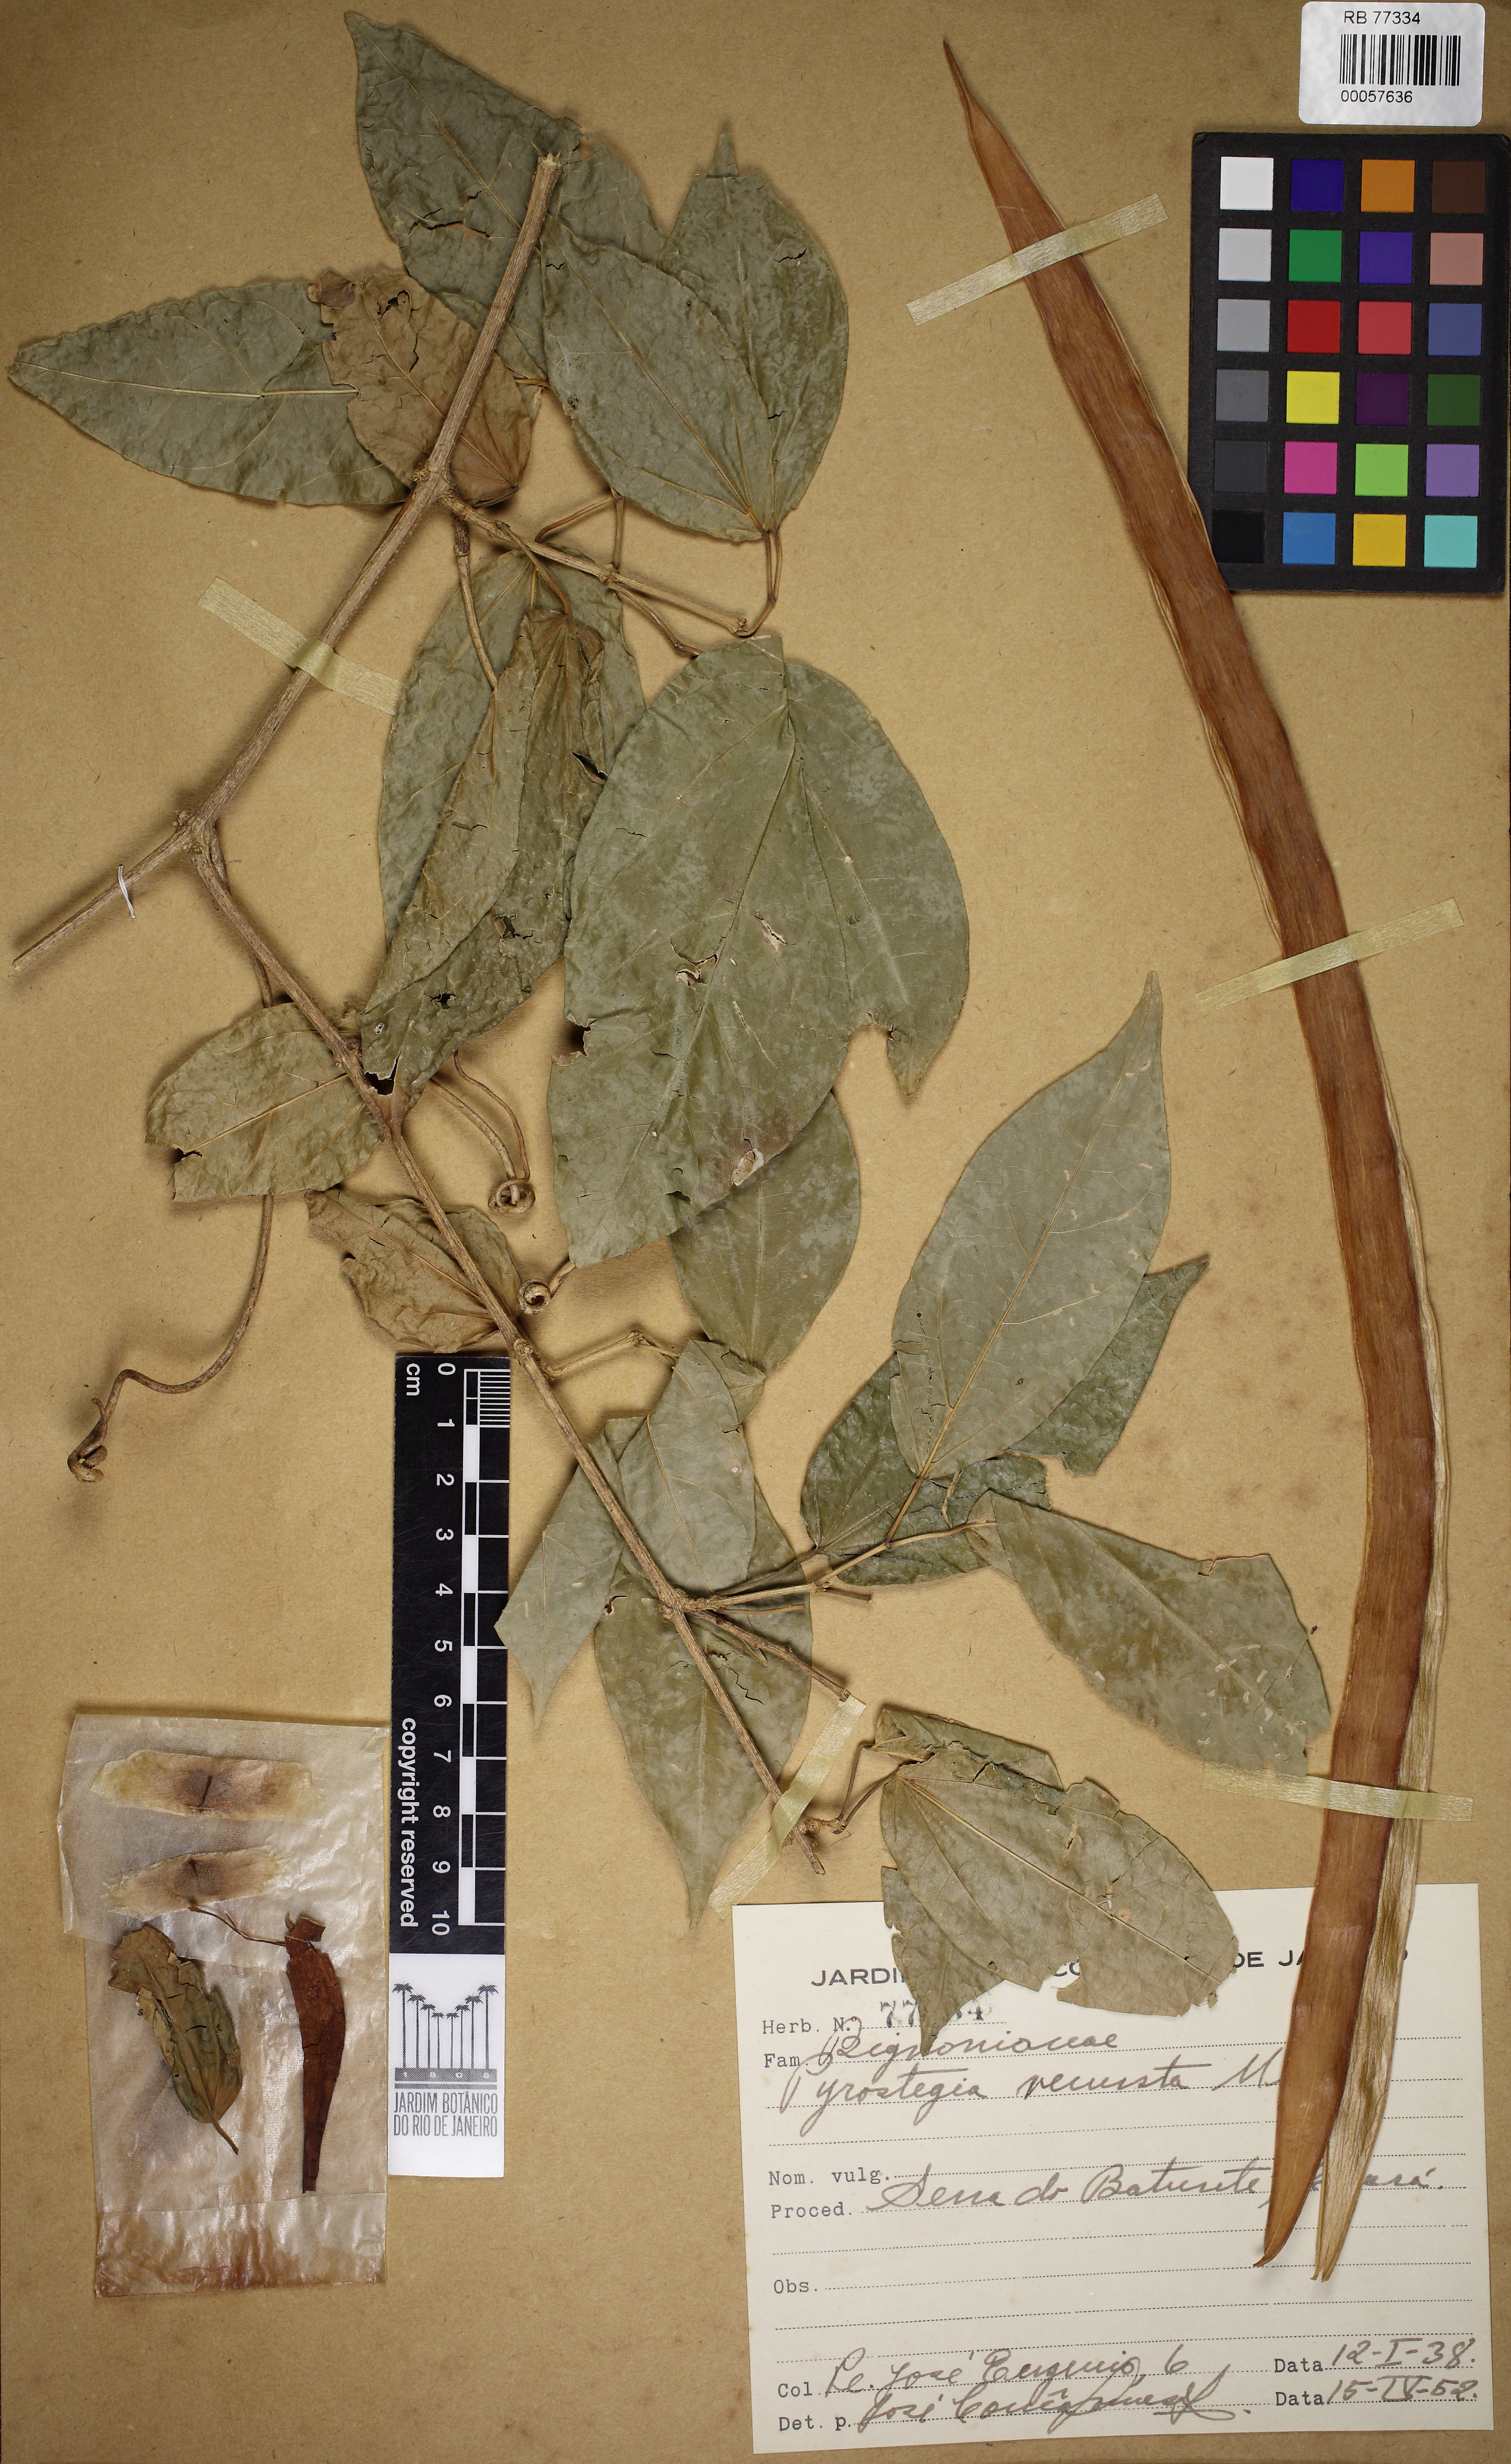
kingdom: Plantae
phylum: Tracheophyta
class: Magnoliopsida
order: Lamiales
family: Bignoniaceae
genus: Pyrostegia
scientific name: Pyrostegia venusta
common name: Flamevine
